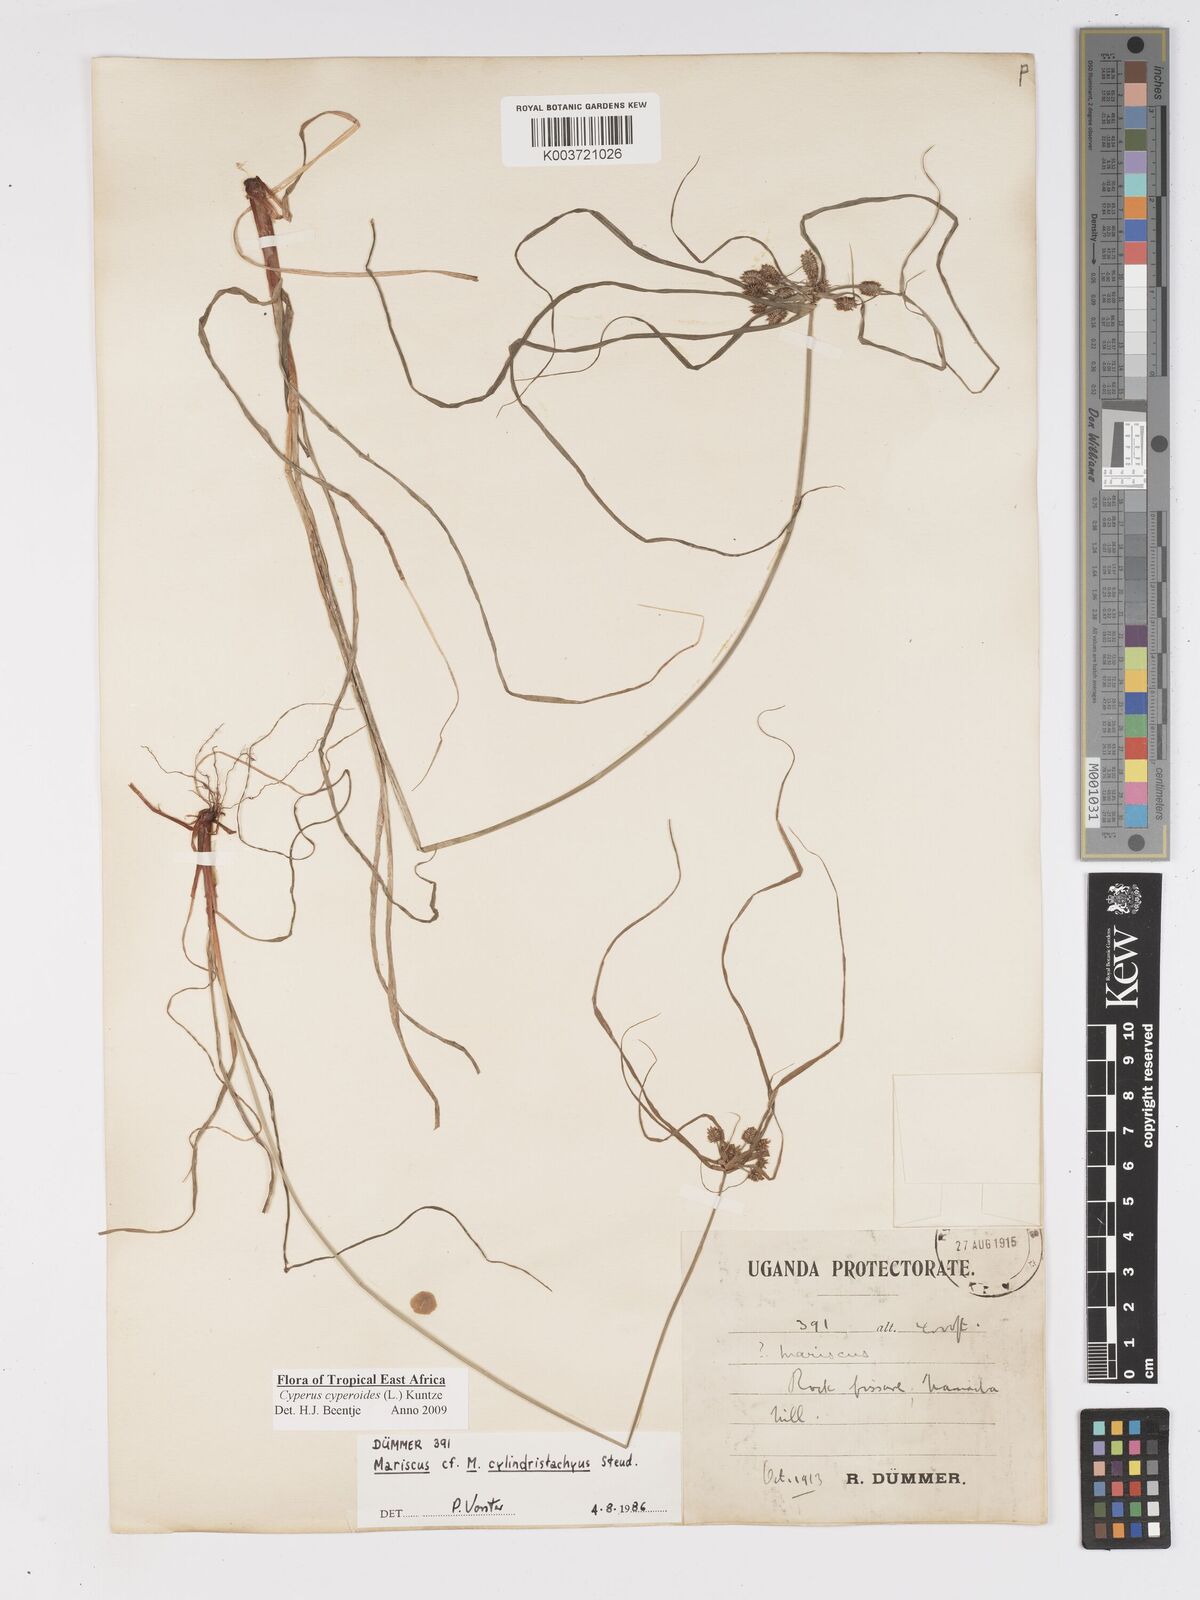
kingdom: Plantae
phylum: Tracheophyta
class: Liliopsida
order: Poales
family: Cyperaceae
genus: Cyperus
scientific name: Cyperus cyperoides
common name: Pacific island flat sedge
